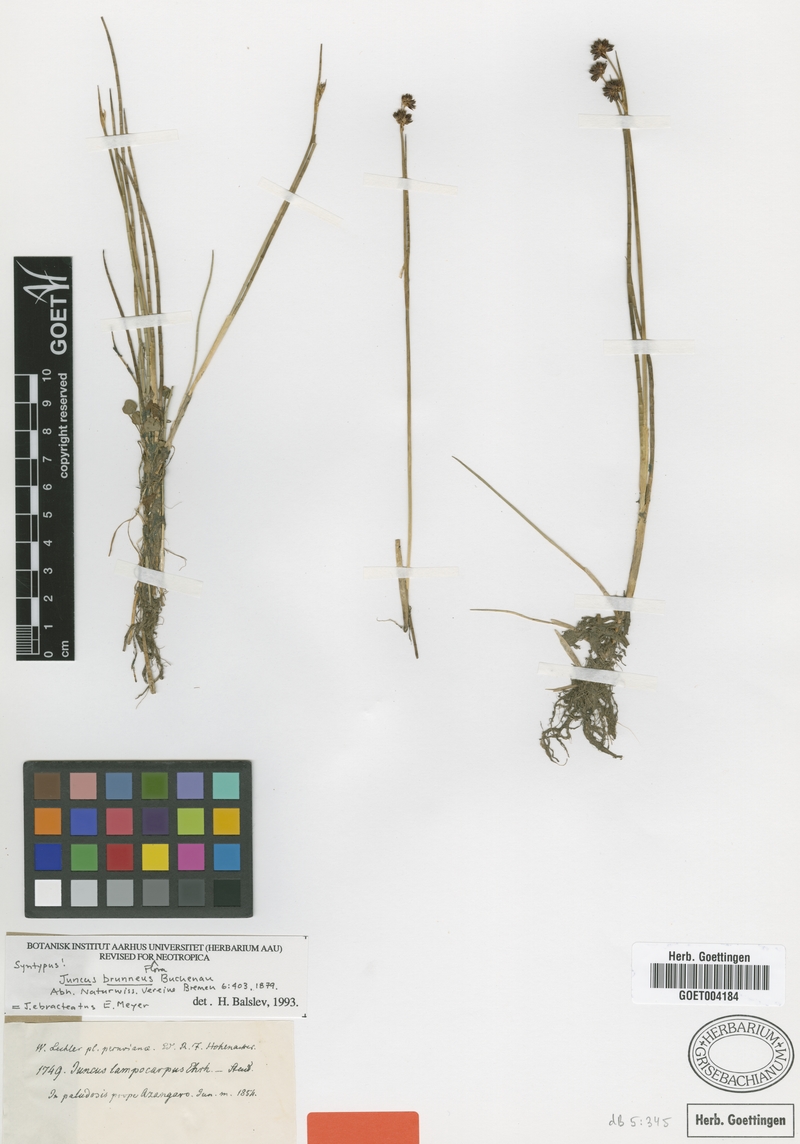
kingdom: Plantae
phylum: Tracheophyta
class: Liliopsida
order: Poales
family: Juncaceae
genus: Juncus
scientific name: Juncus ebracteatus
